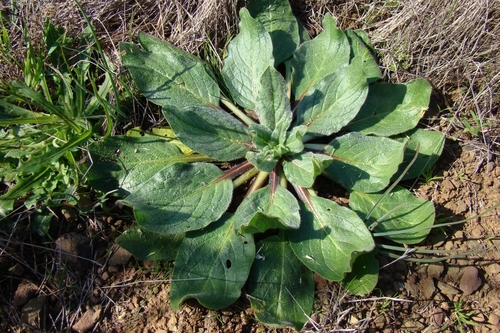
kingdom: Plantae
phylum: Tracheophyta
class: Magnoliopsida
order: Boraginales
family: Boraginaceae
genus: Echium
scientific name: Echium plantagineum
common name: Purple viper's-bugloss
